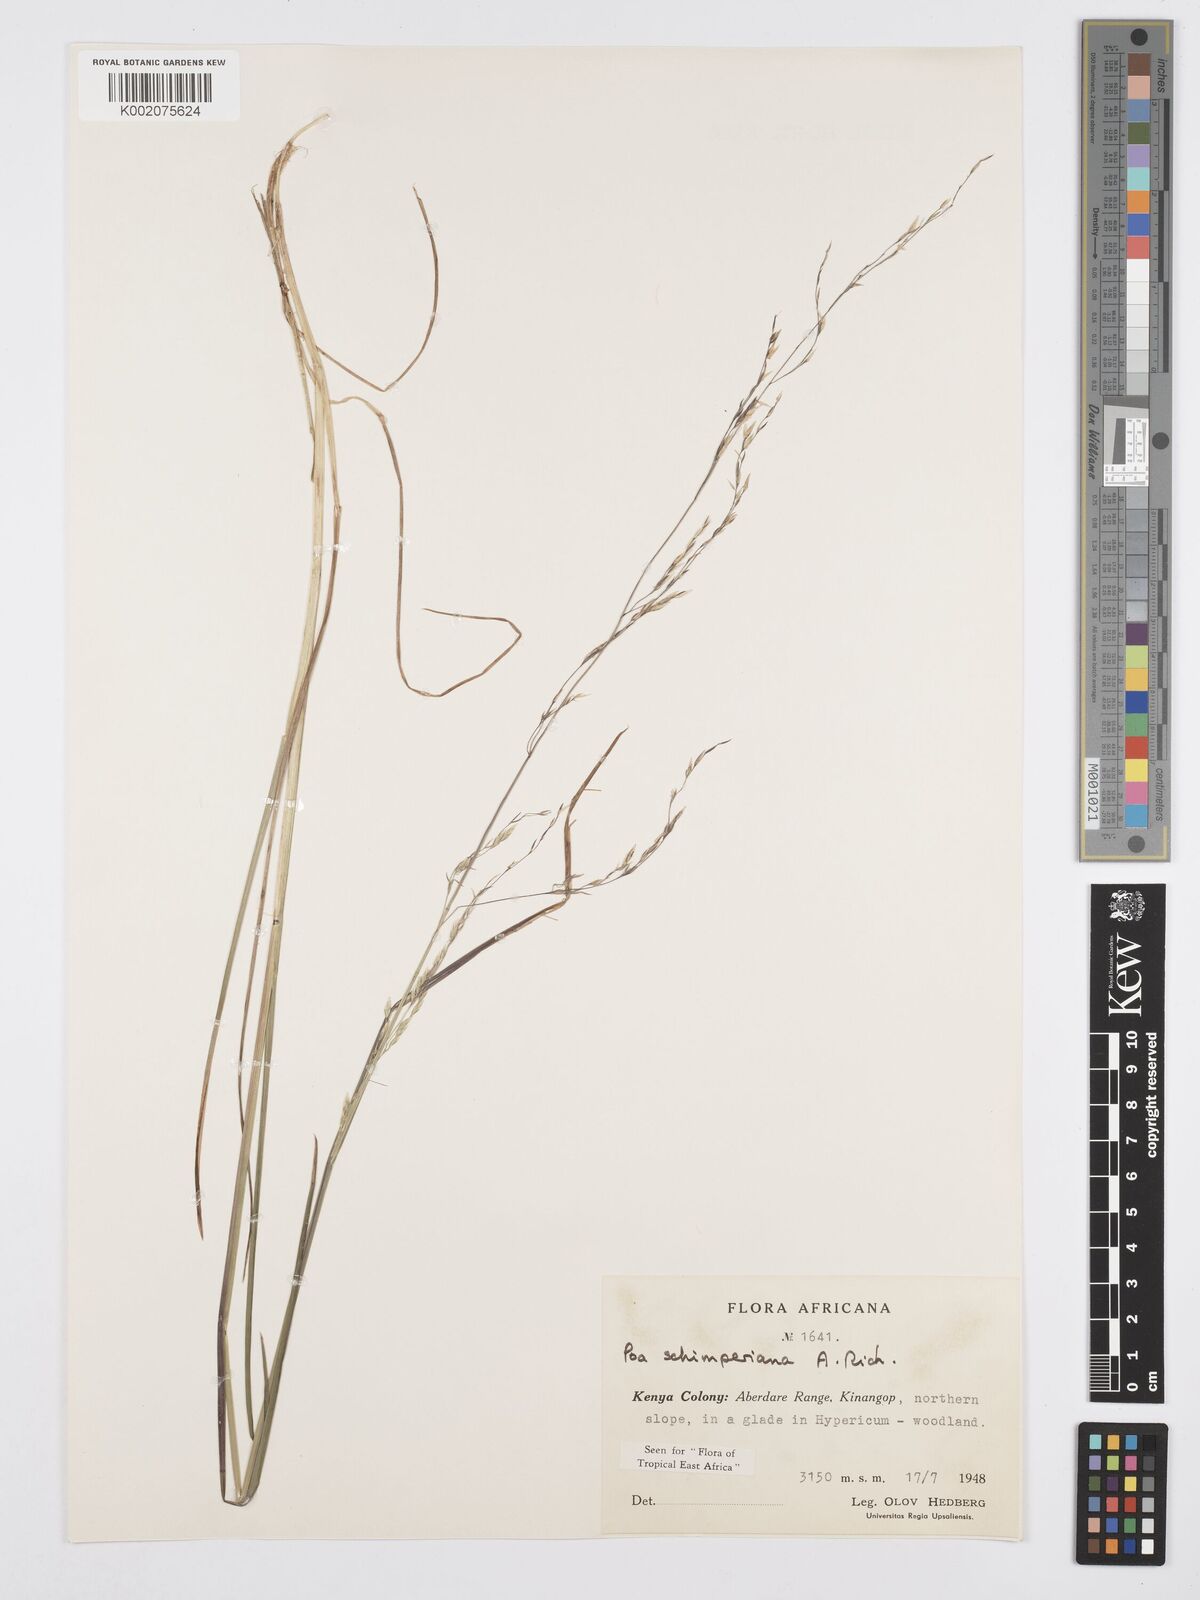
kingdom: Plantae
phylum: Tracheophyta
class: Liliopsida
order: Poales
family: Poaceae
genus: Poa
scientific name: Poa schimperiana
